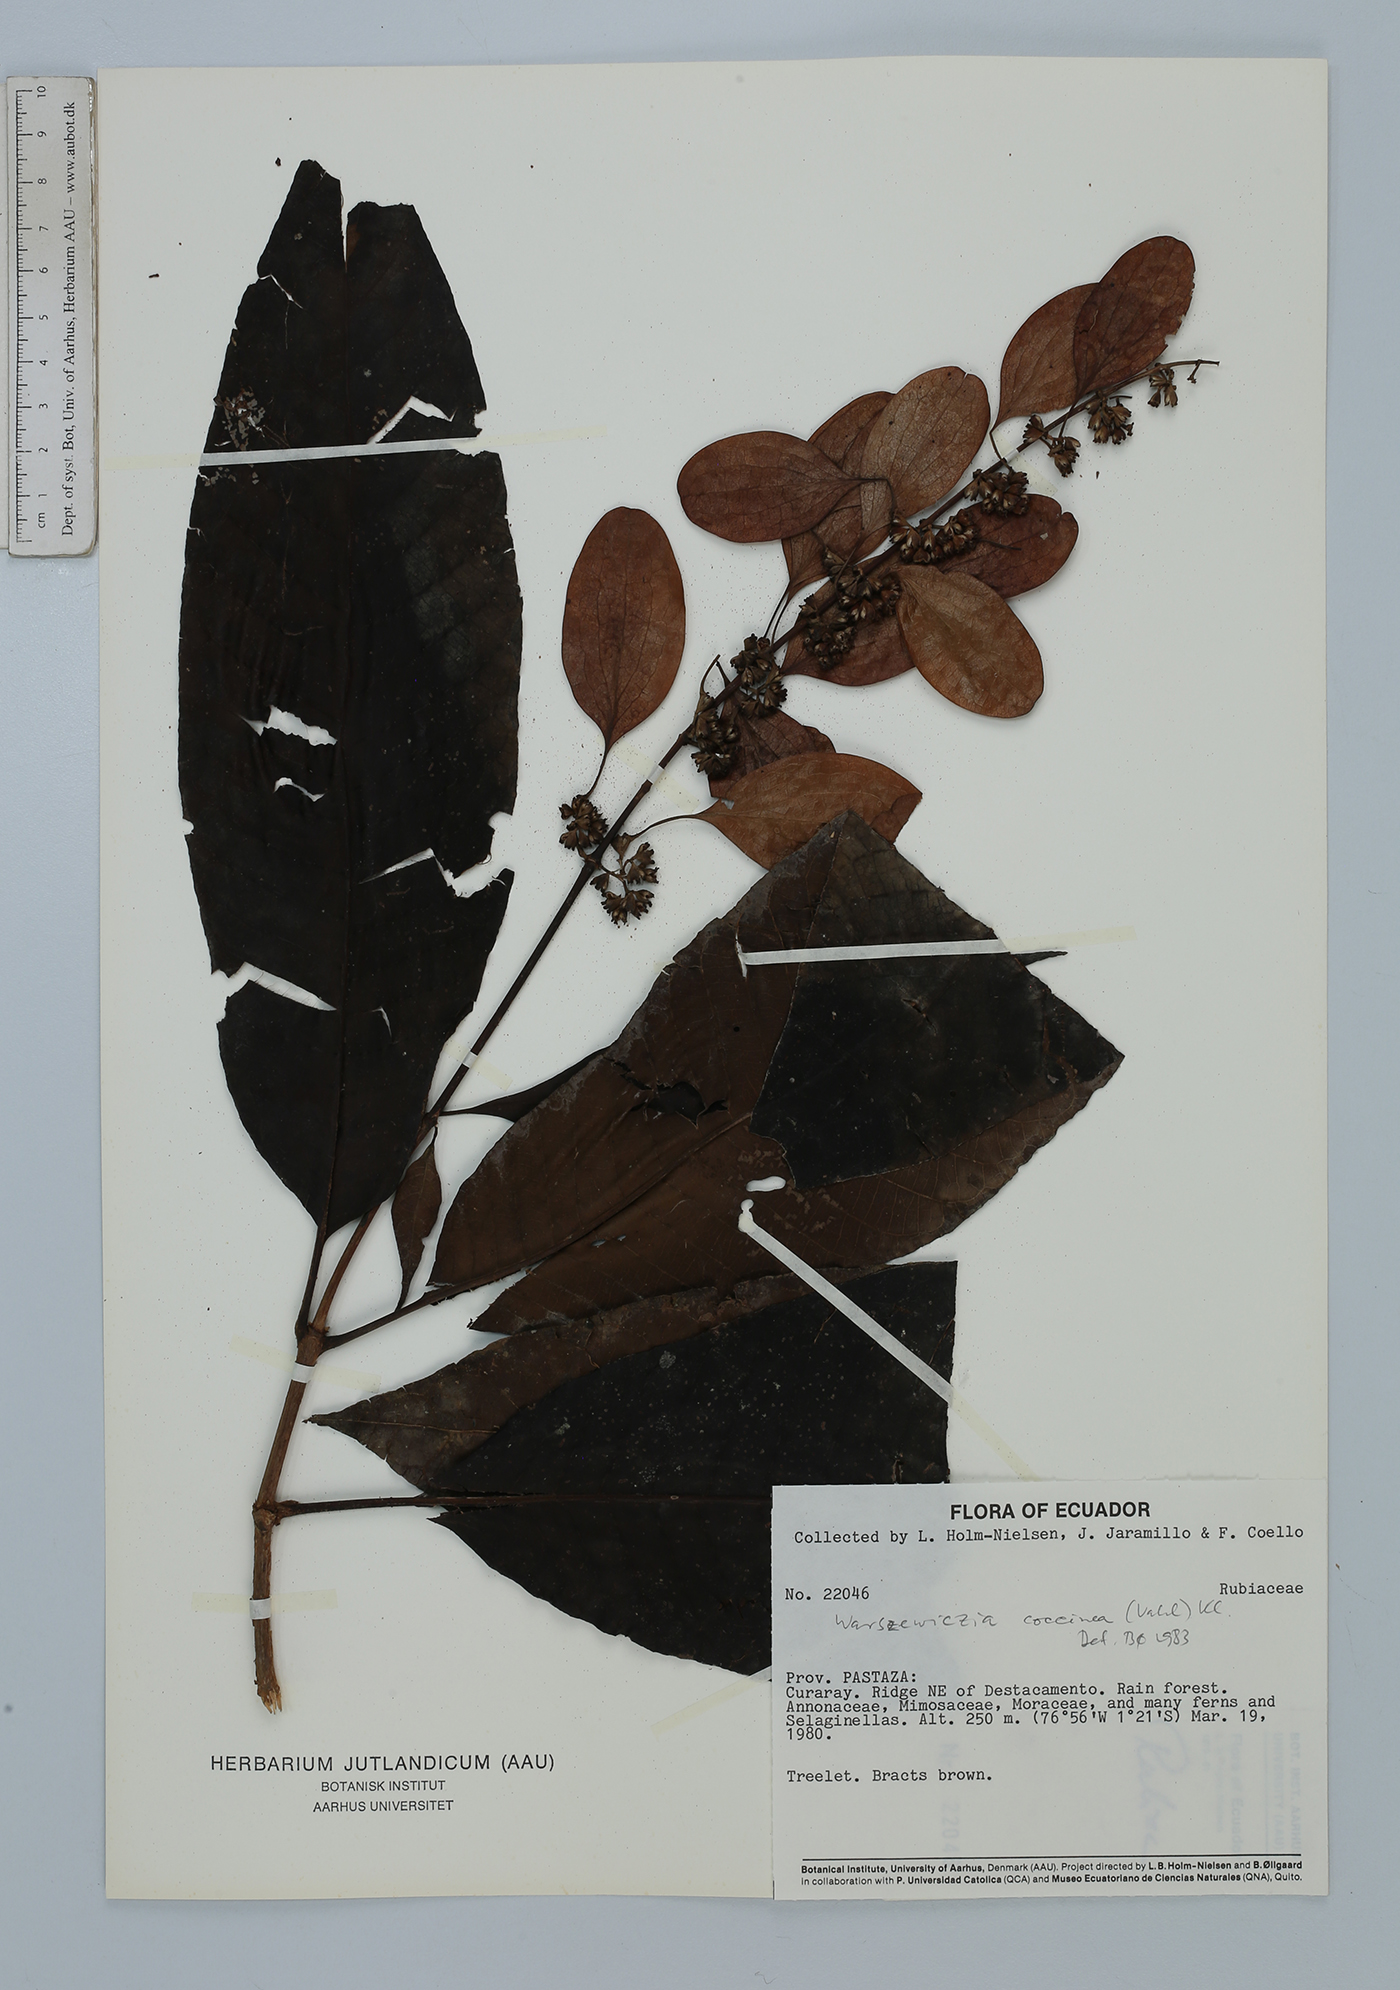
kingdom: Plantae
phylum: Tracheophyta
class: Magnoliopsida
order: Gentianales
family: Rubiaceae
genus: Warszewiczia
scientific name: Warszewiczia coccinea
